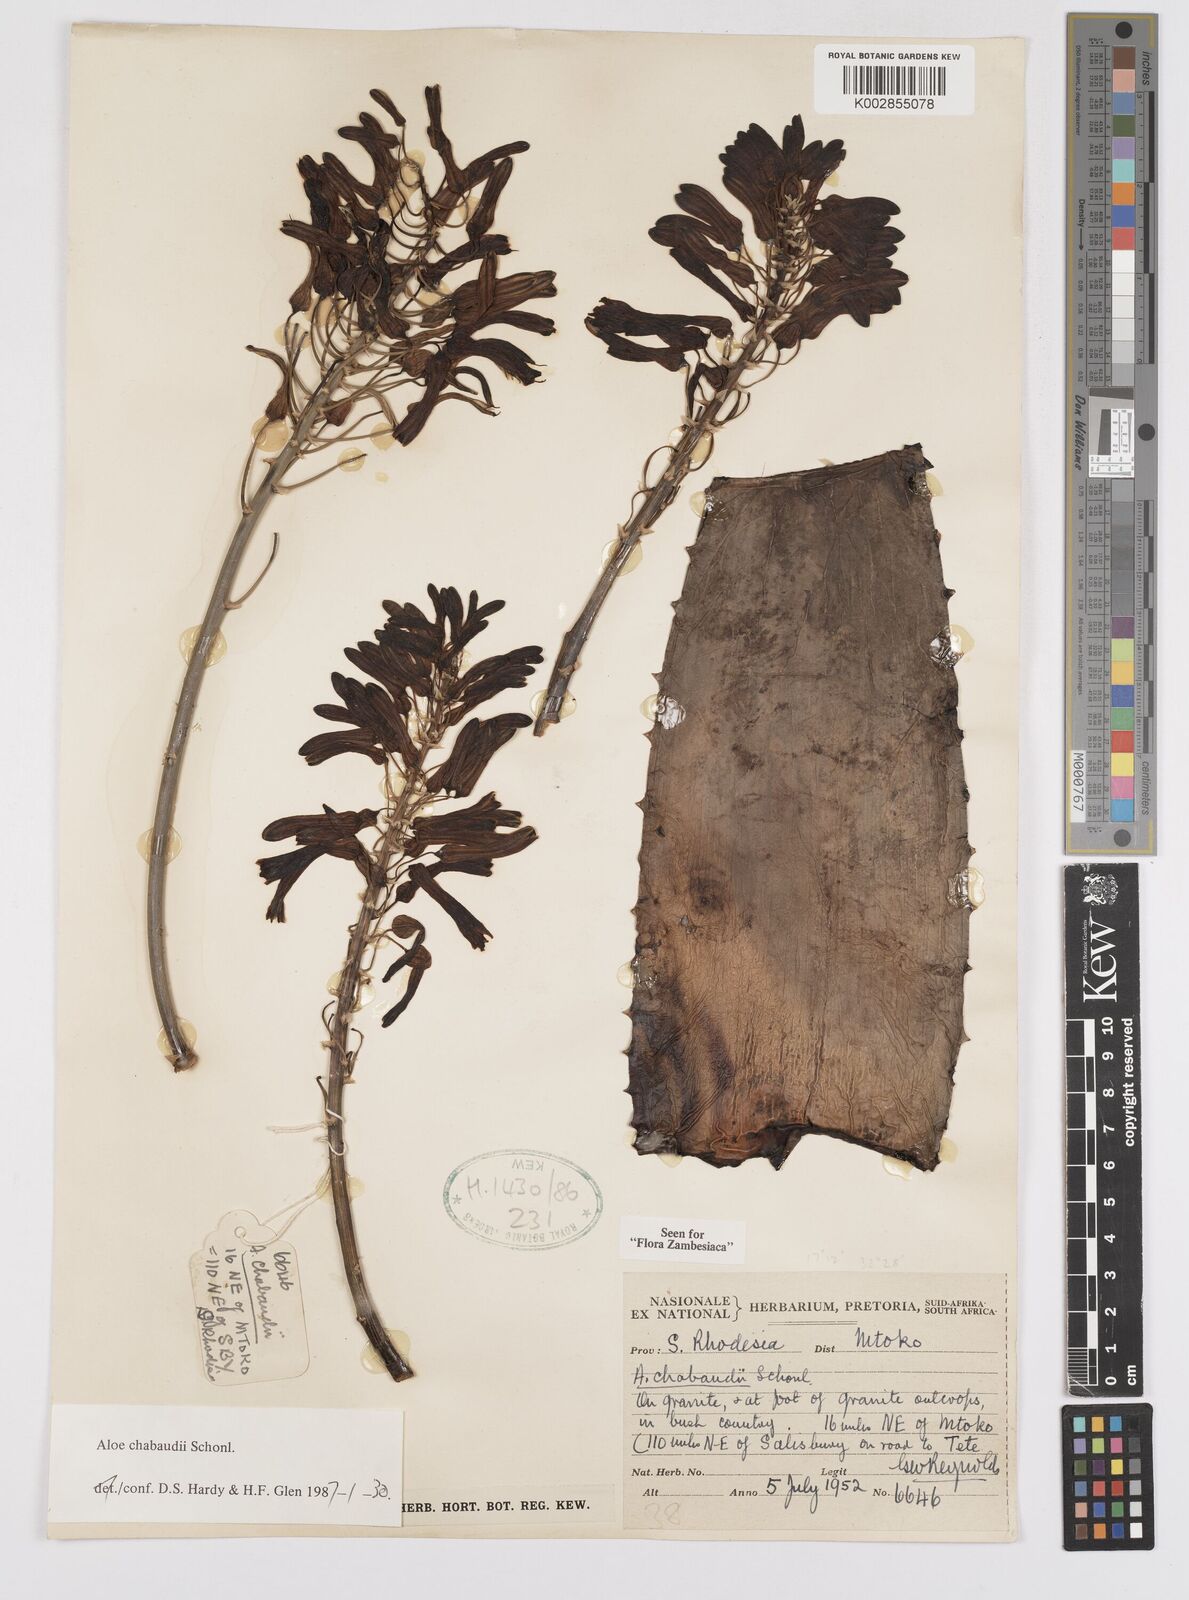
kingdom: Plantae
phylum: Tracheophyta
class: Liliopsida
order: Asparagales
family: Asphodelaceae
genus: Aloe
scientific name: Aloe chabaudii
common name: Chabaud's aloe
